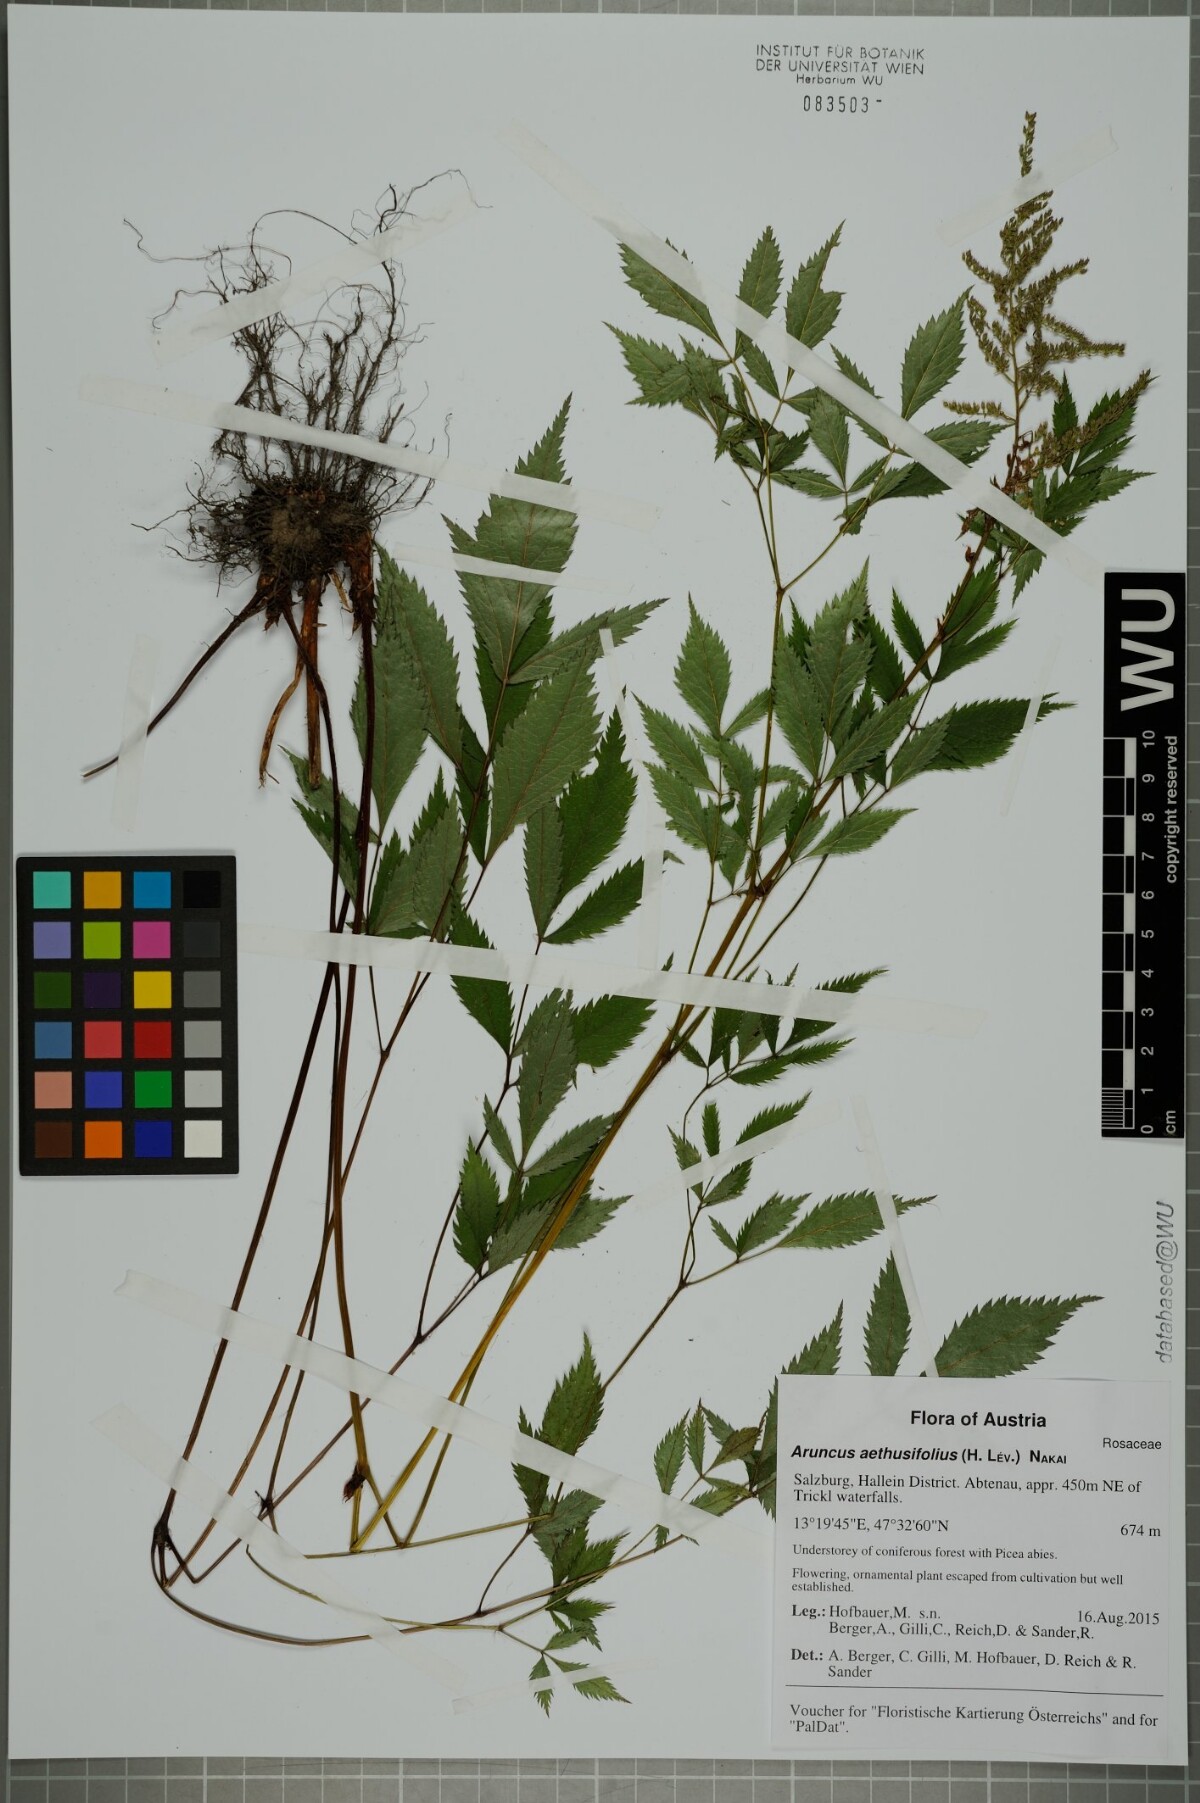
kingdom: Plantae
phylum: Tracheophyta
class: Magnoliopsida
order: Rosales
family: Rosaceae
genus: Aruncus
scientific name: Aruncus sylvester
